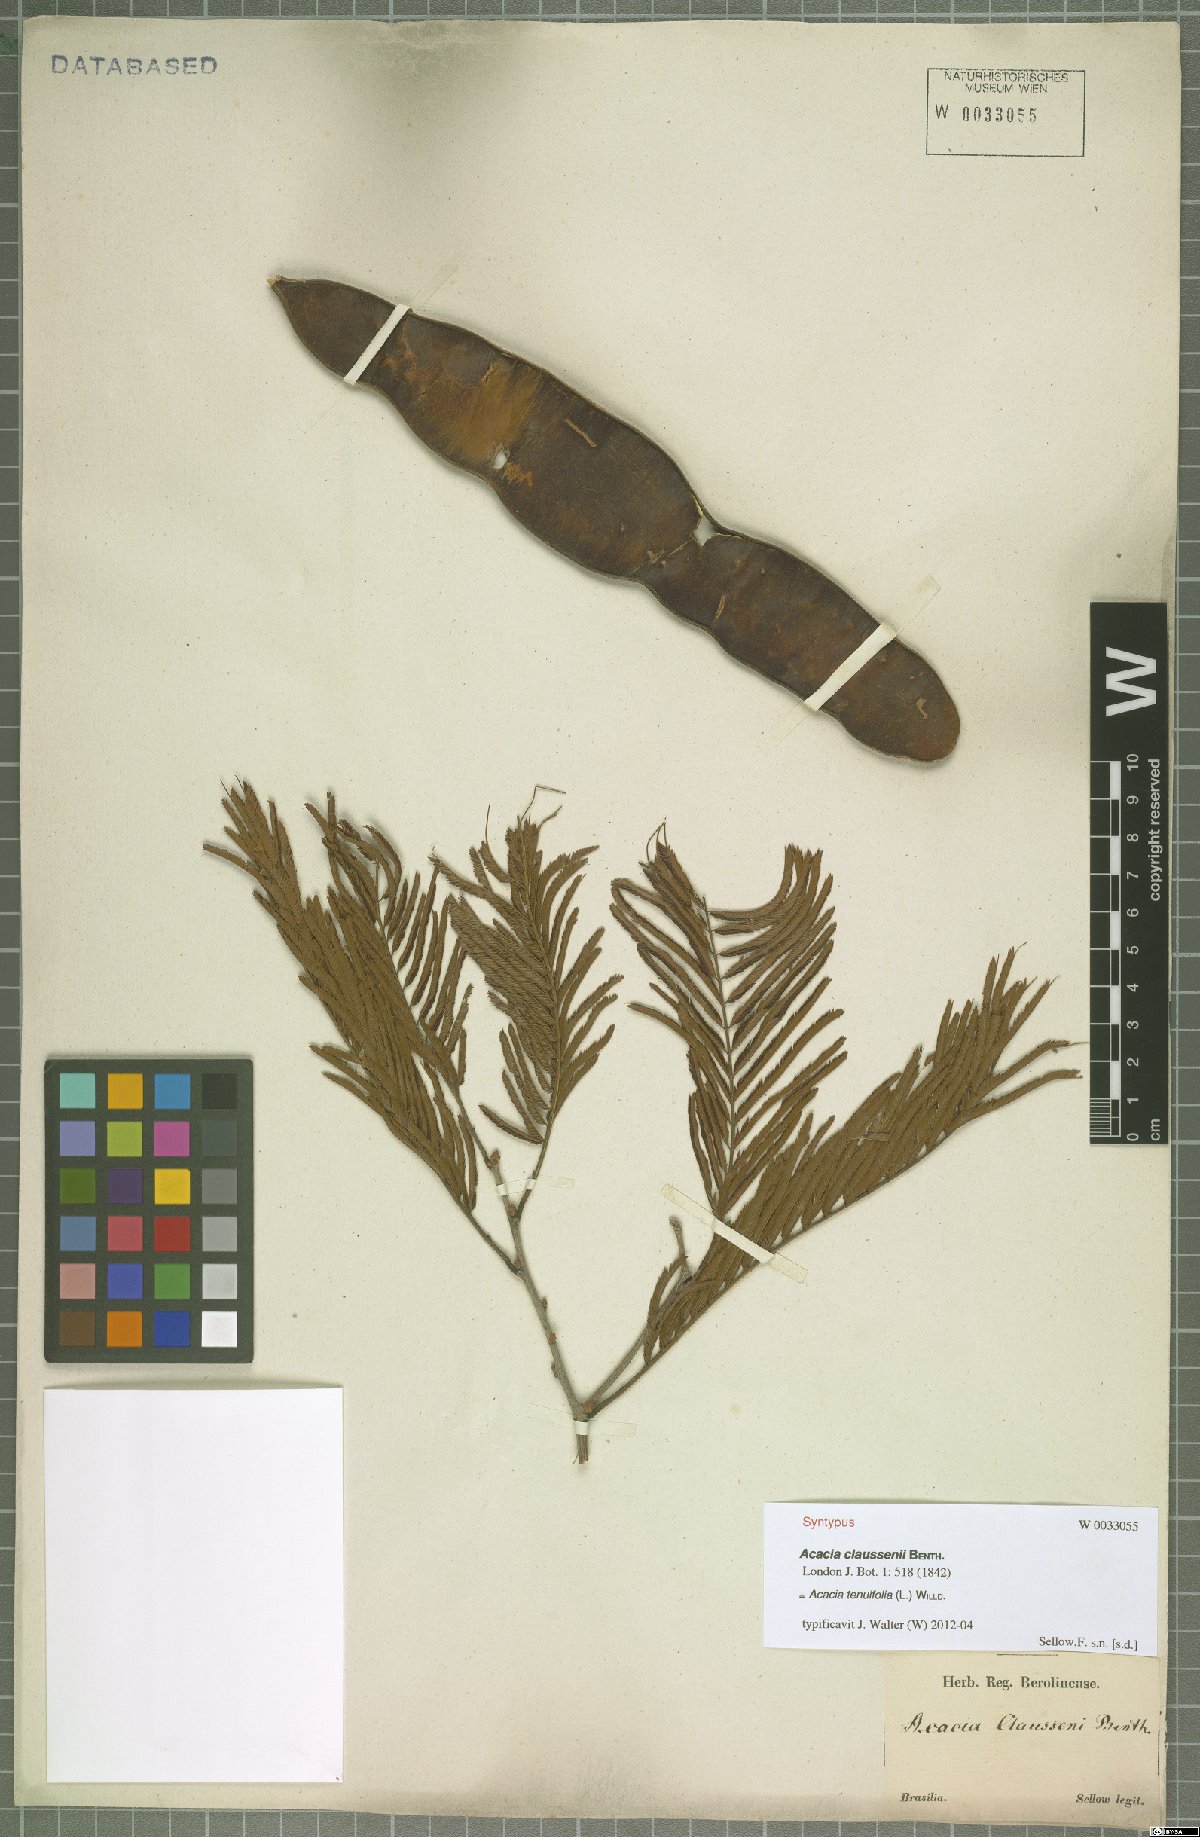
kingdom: Plantae
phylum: Tracheophyta
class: Magnoliopsida
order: Fabales
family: Fabaceae
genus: Senegalia
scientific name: Senegalia tenuifolia
